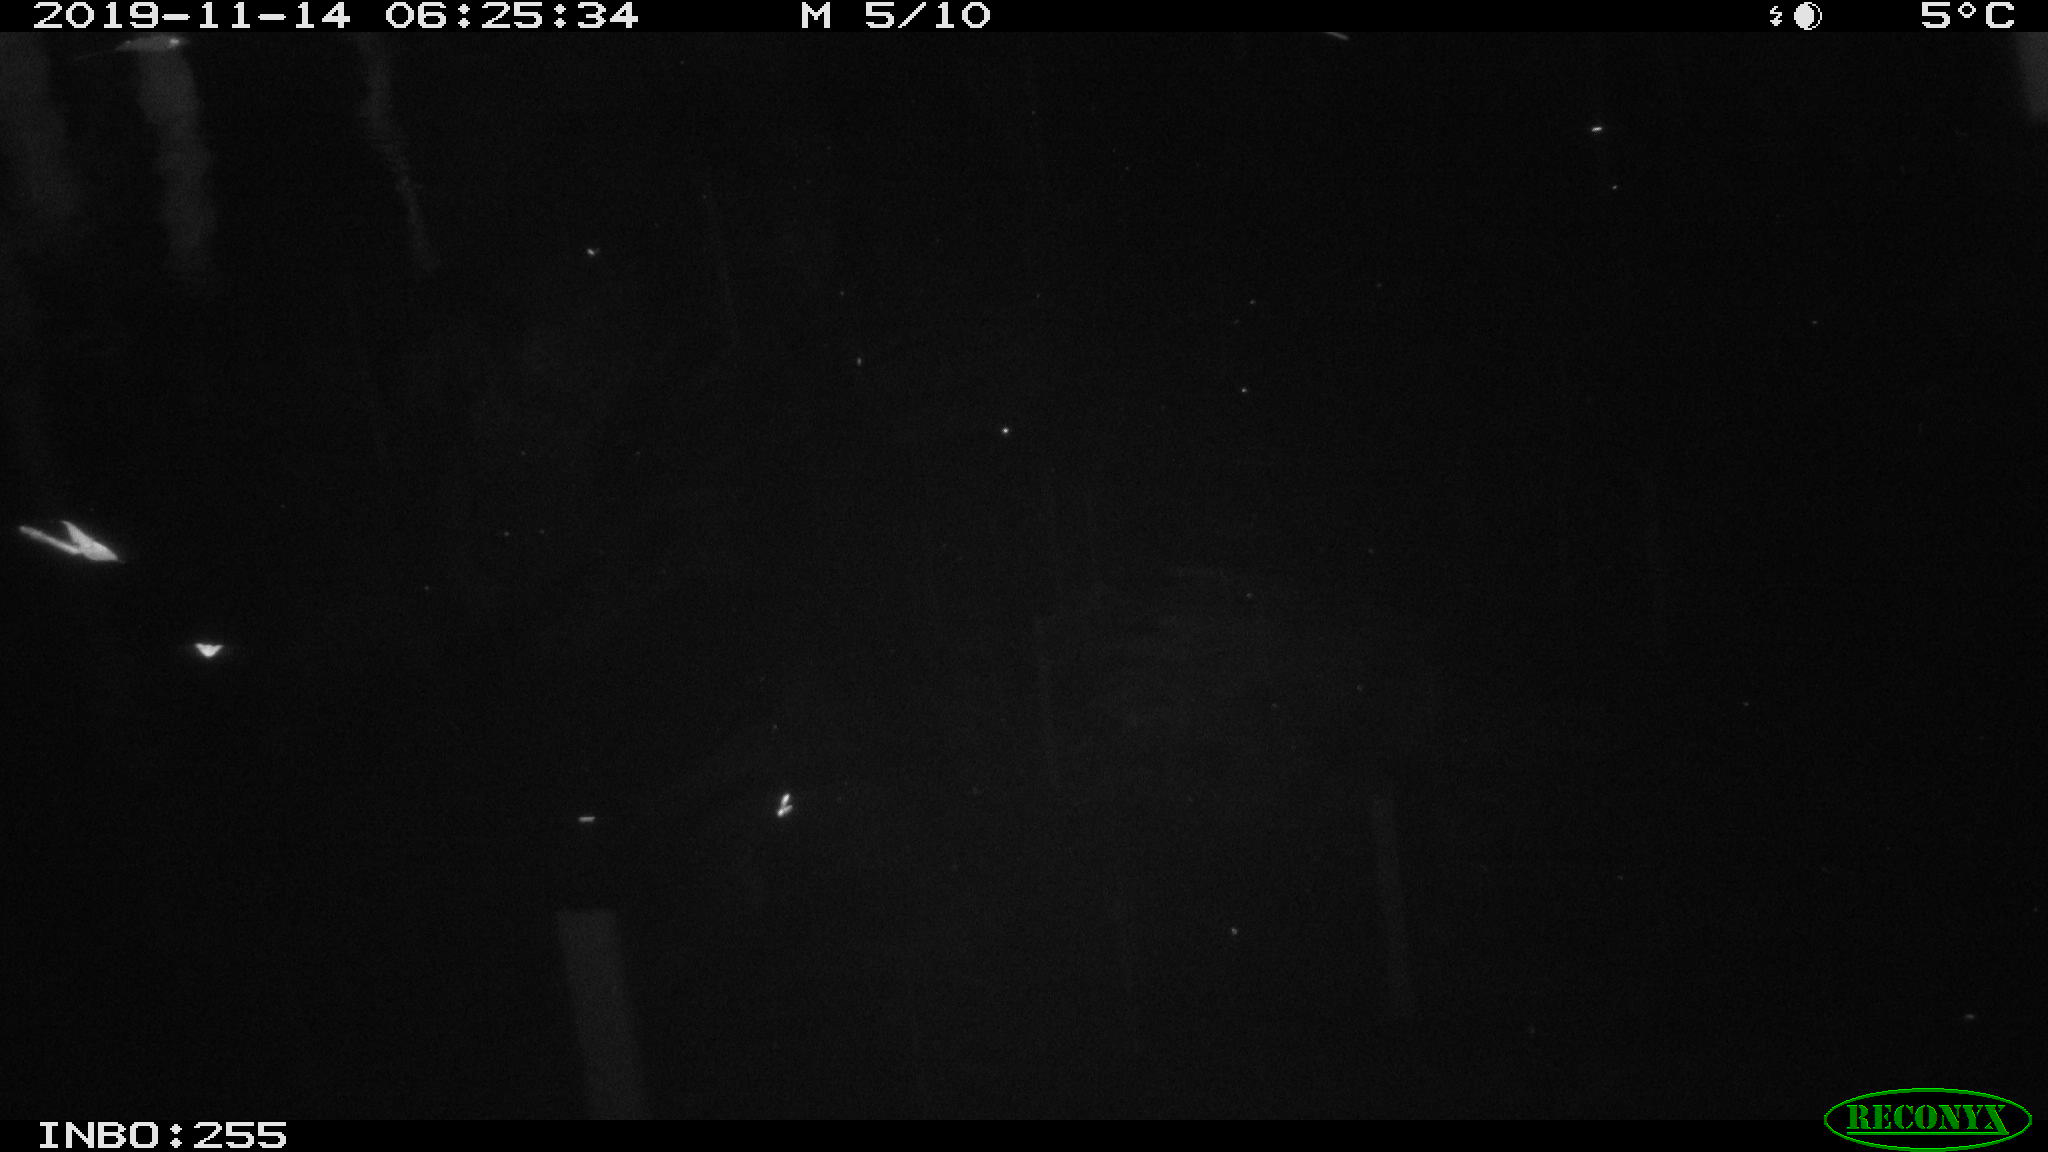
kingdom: Animalia
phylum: Chordata
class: Mammalia
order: Rodentia
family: Muridae
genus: Rattus
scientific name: Rattus norvegicus
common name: Brown rat
